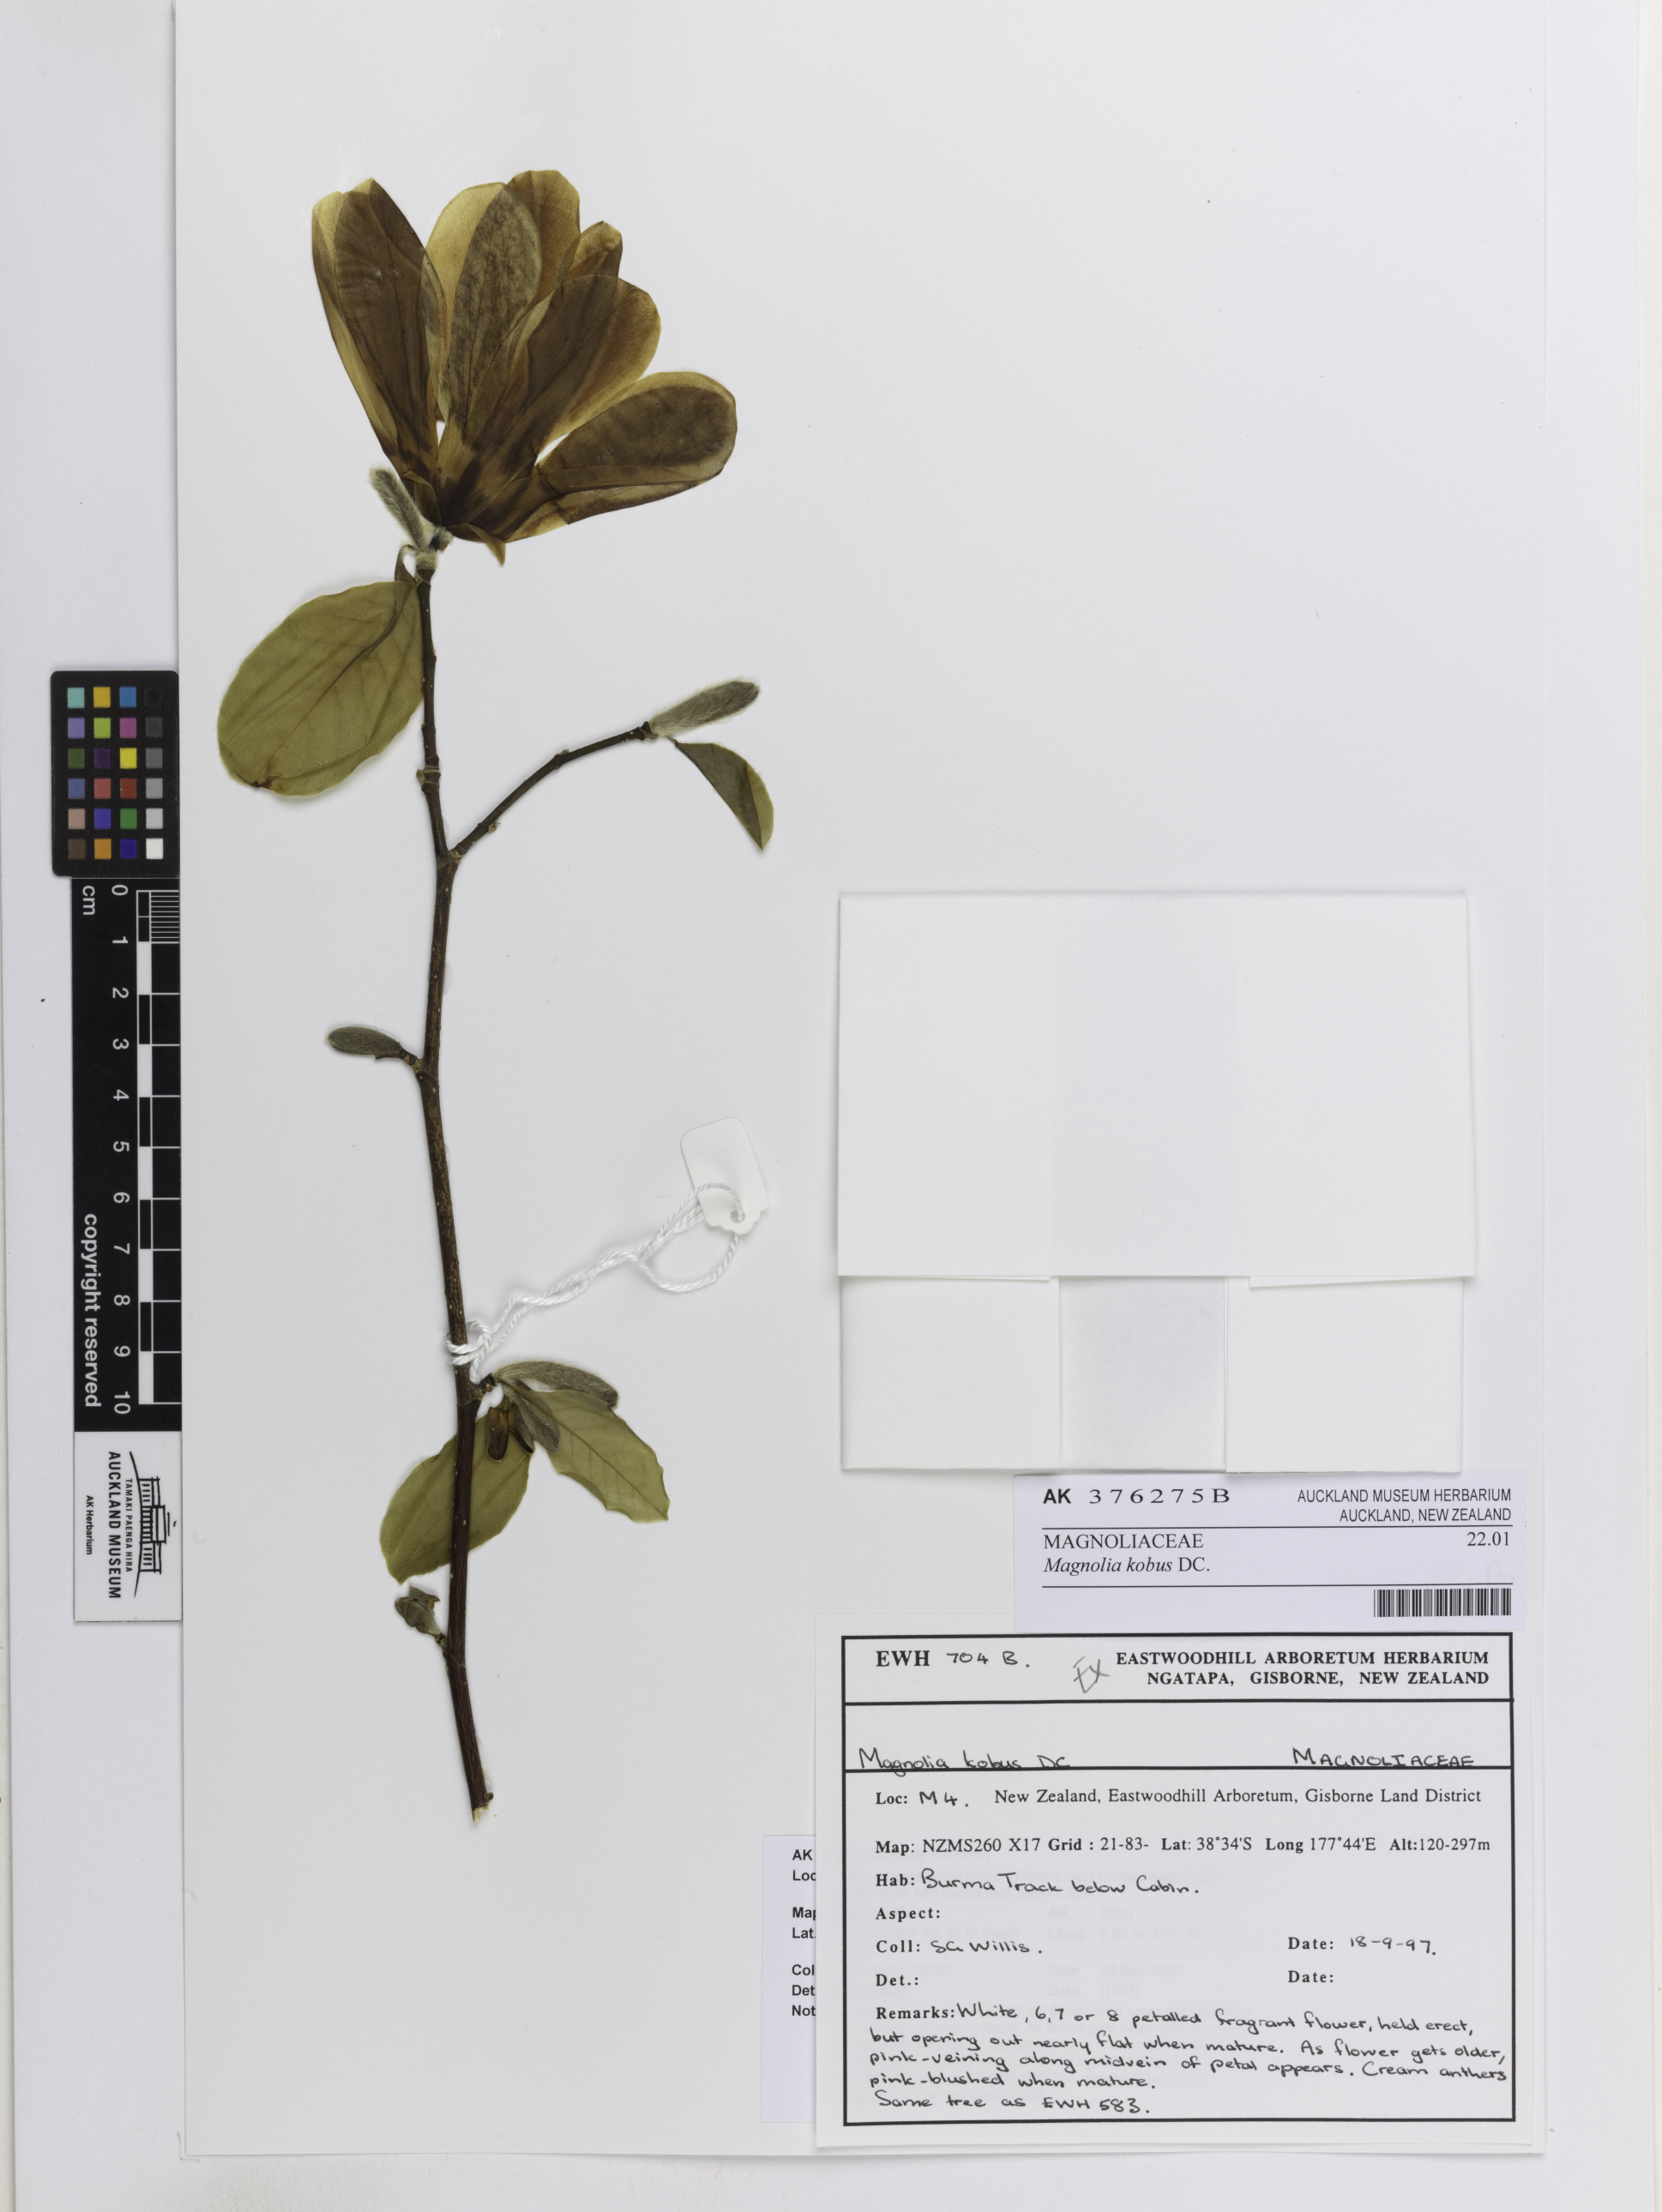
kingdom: Plantae
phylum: Tracheophyta
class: Magnoliopsida
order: Magnoliales
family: Magnoliaceae
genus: Magnolia
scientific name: Magnolia kobus
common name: Kobus magnolia
